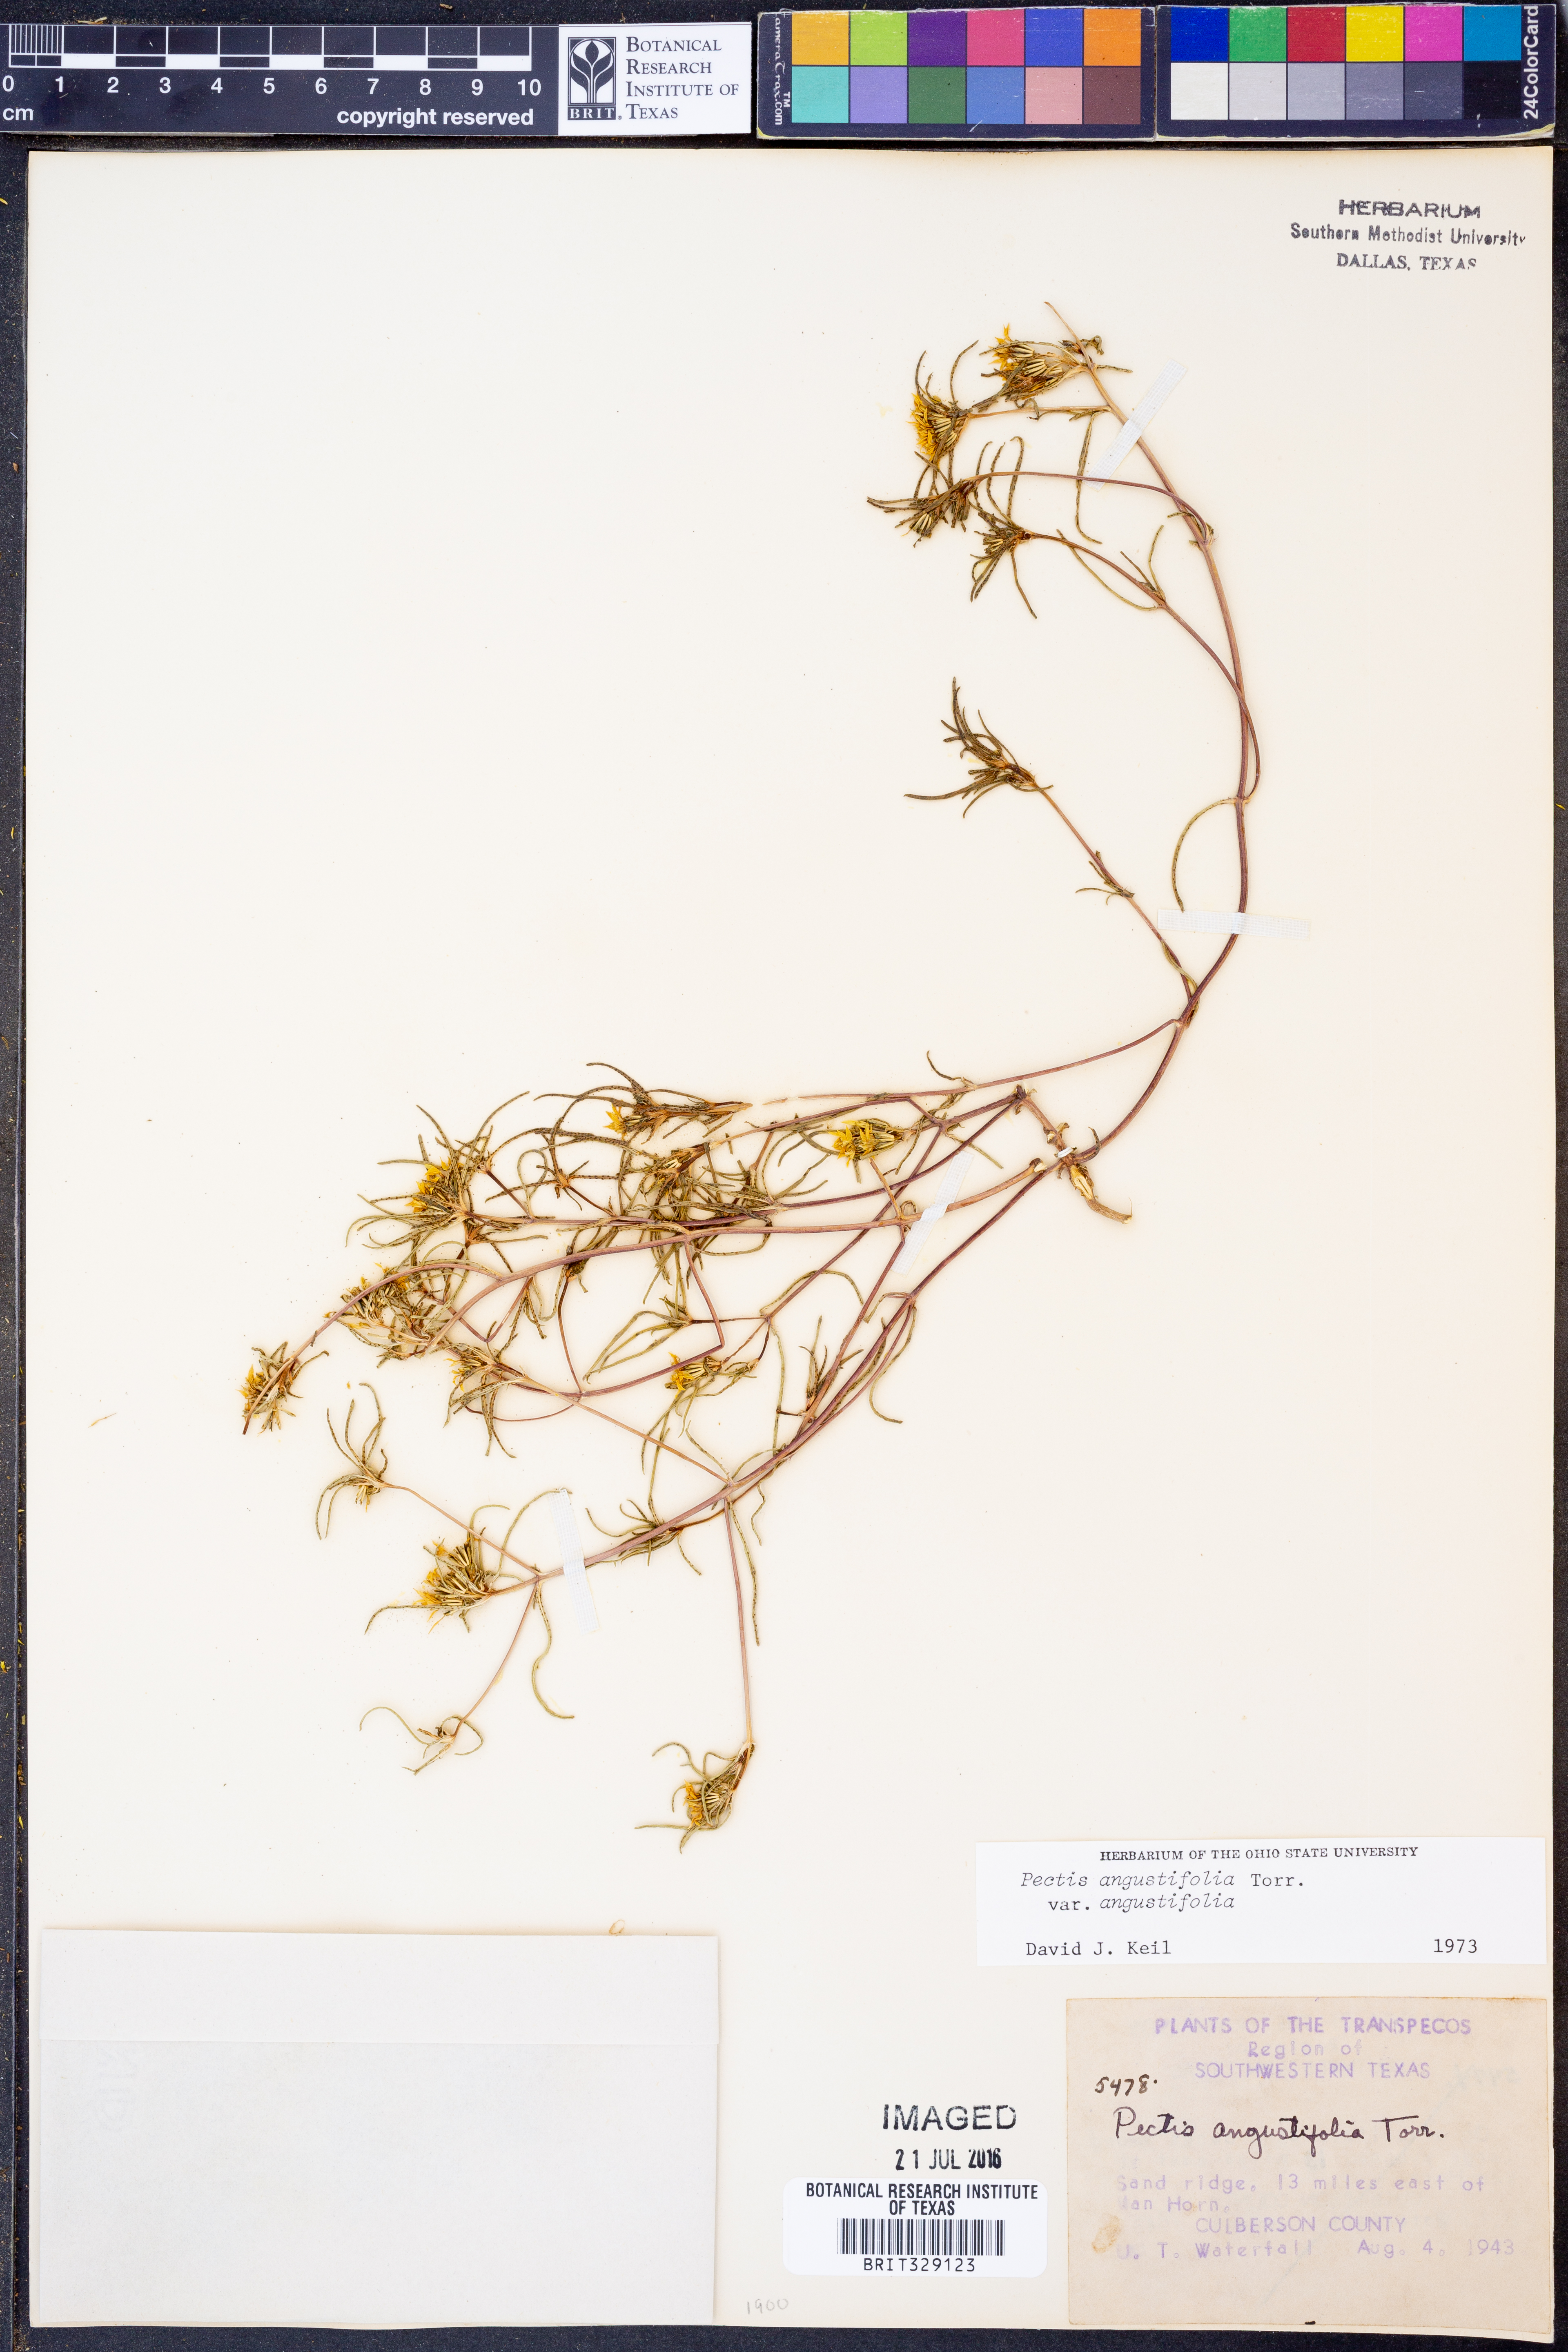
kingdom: Plantae
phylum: Tracheophyta
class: Magnoliopsida
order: Asterales
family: Asteraceae
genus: Pectis
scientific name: Pectis angustifolia
